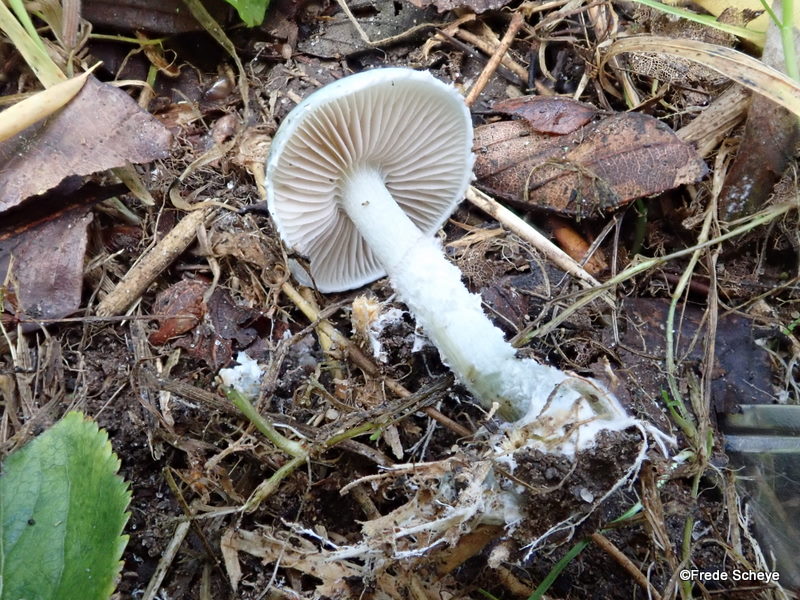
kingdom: Fungi
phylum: Basidiomycota
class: Agaricomycetes
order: Agaricales
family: Strophariaceae
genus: Stropharia
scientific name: Stropharia cyanea
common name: blågrøn bredblad
